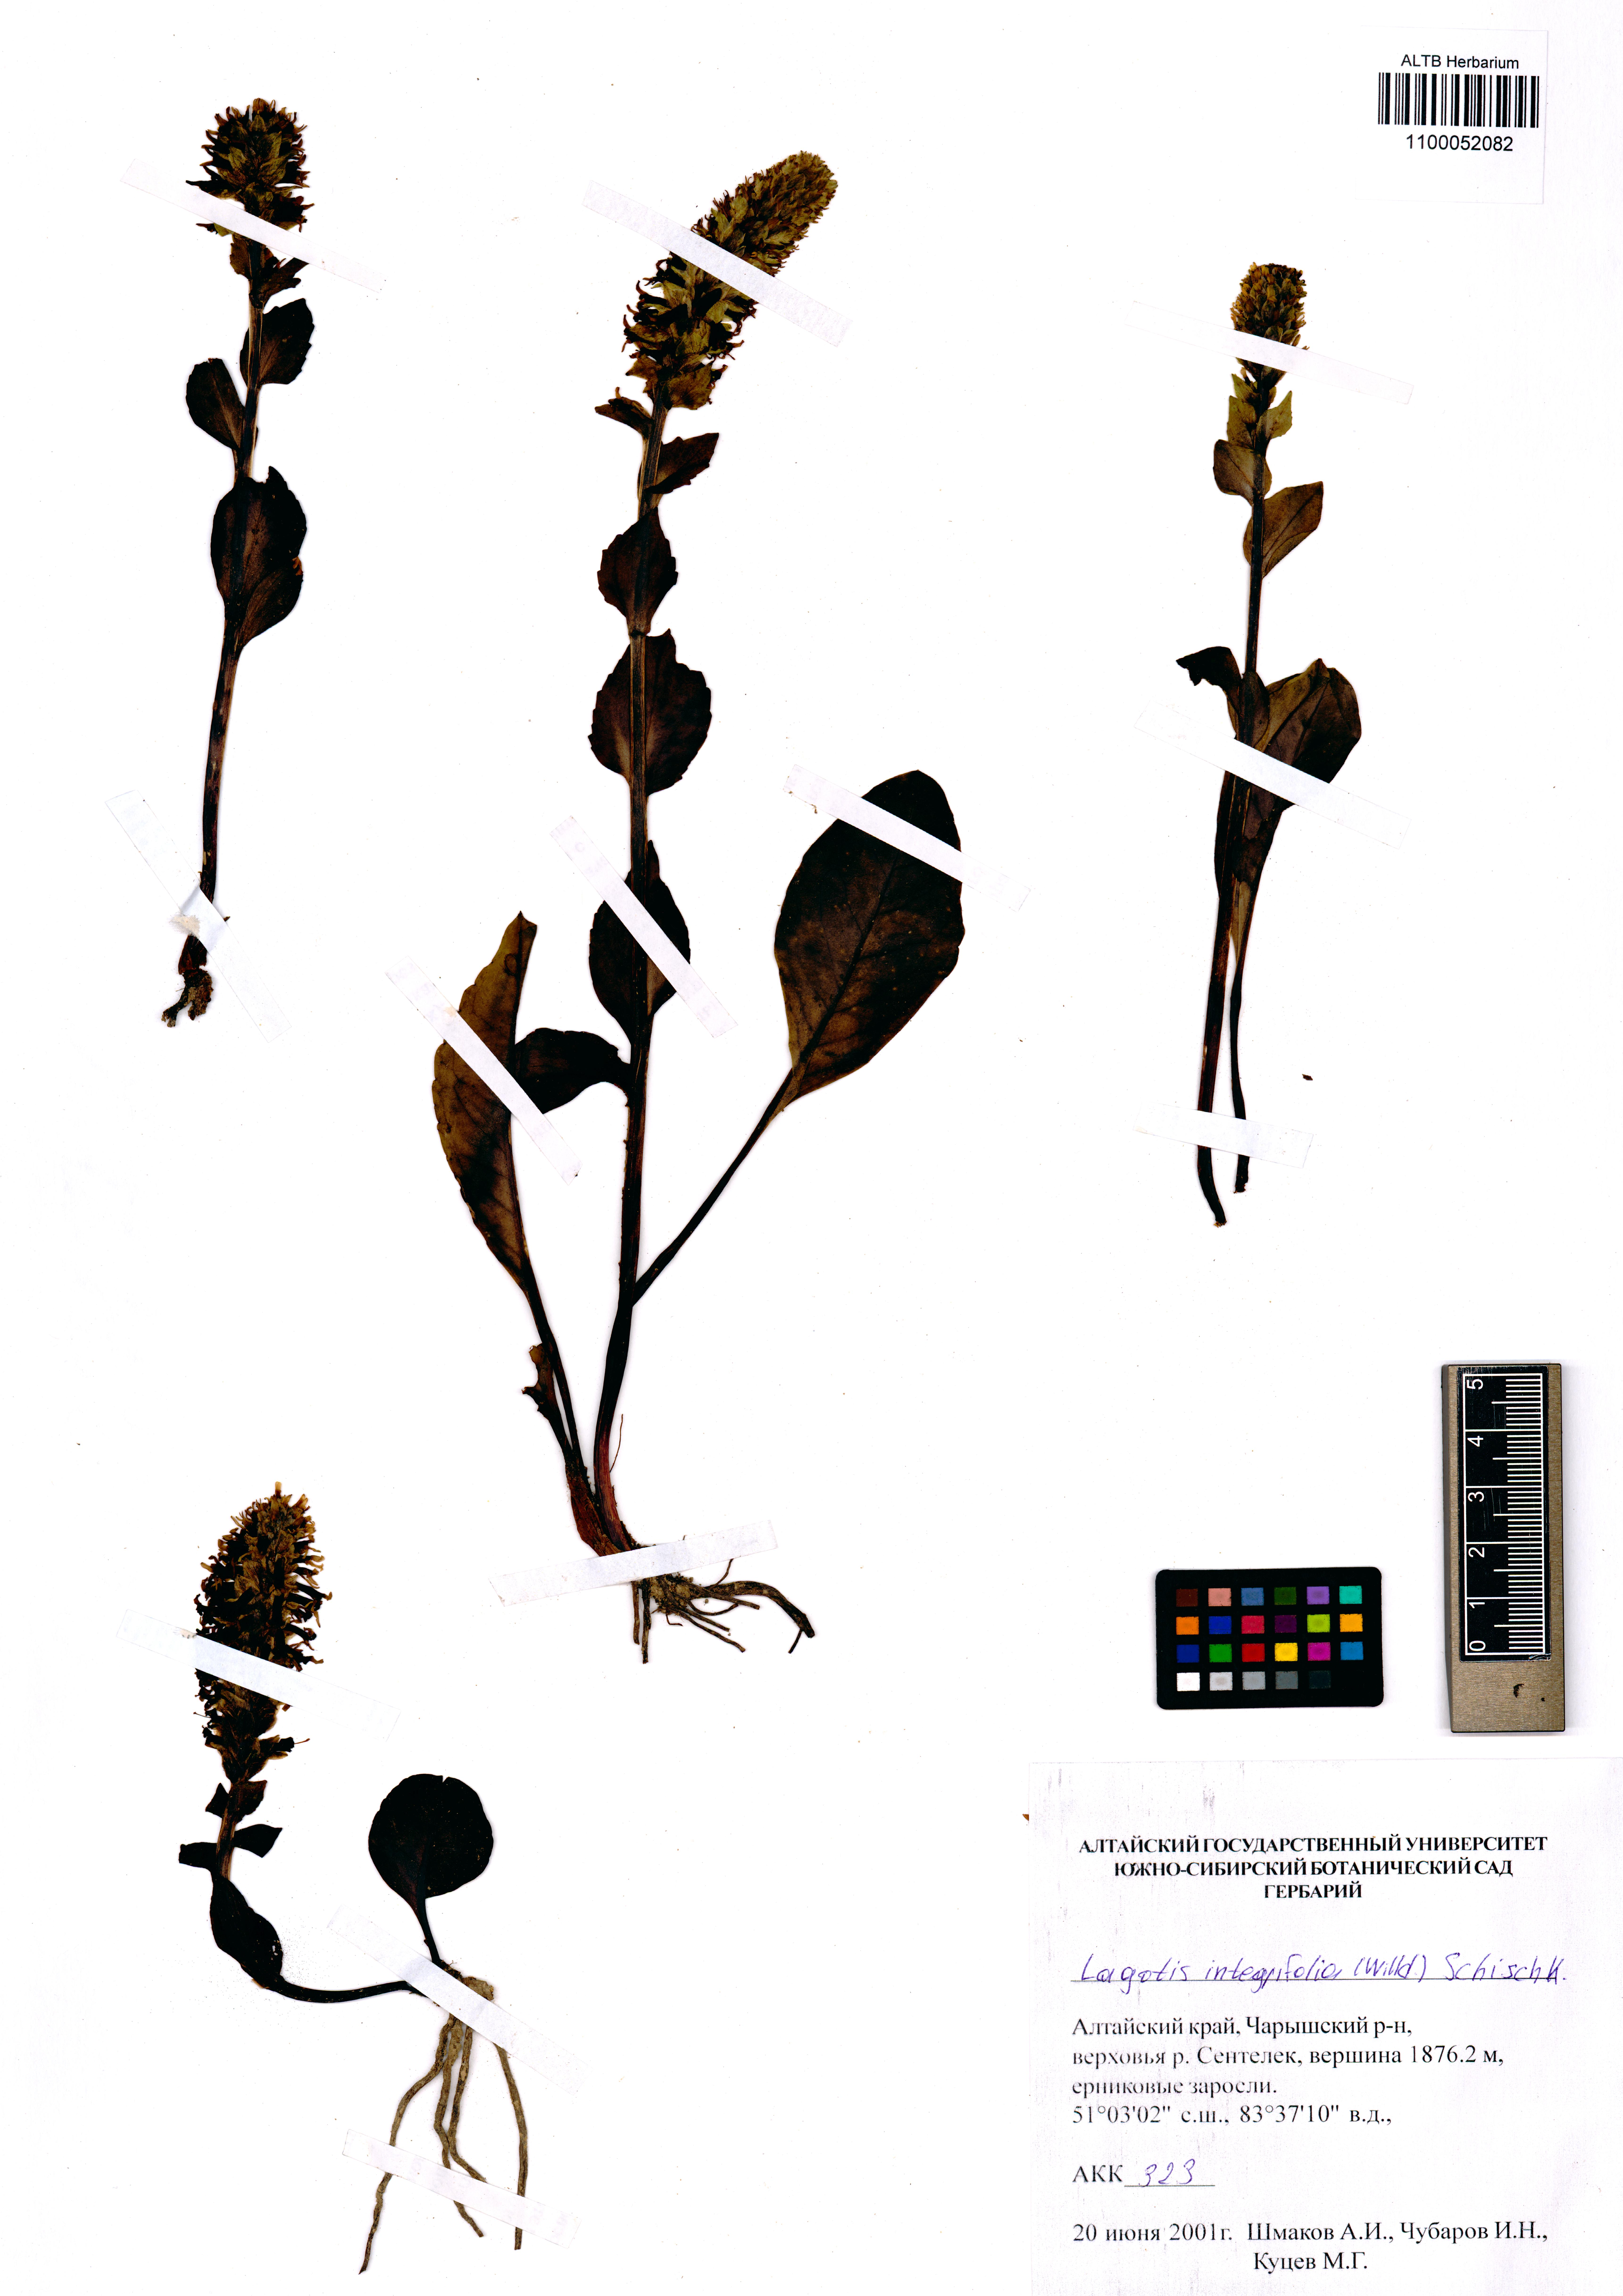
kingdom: Plantae
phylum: Tracheophyta
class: Magnoliopsida
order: Lamiales
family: Plantaginaceae
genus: Lagotis
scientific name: Lagotis integrifolia
